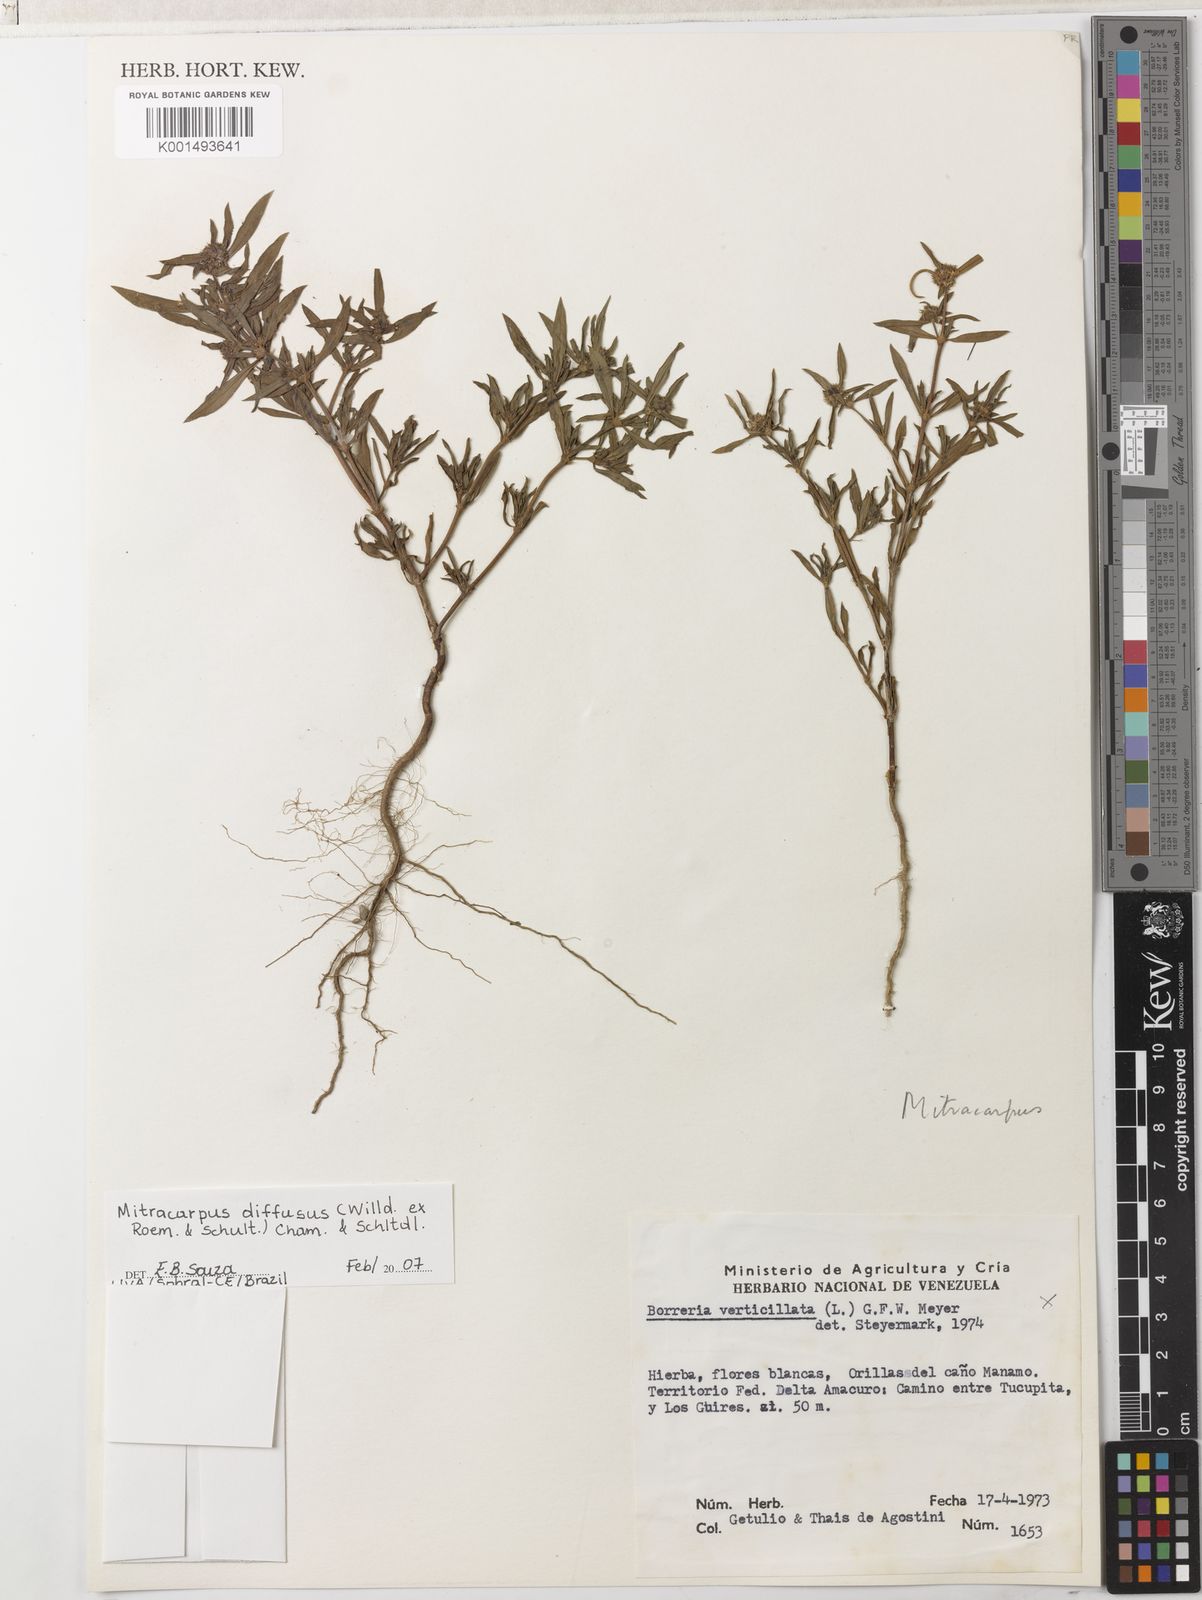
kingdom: Plantae
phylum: Tracheophyta
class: Magnoliopsida
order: Gentianales
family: Rubiaceae
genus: Mitracarpus
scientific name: Mitracarpus hirtus
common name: Tropical girdlepod
